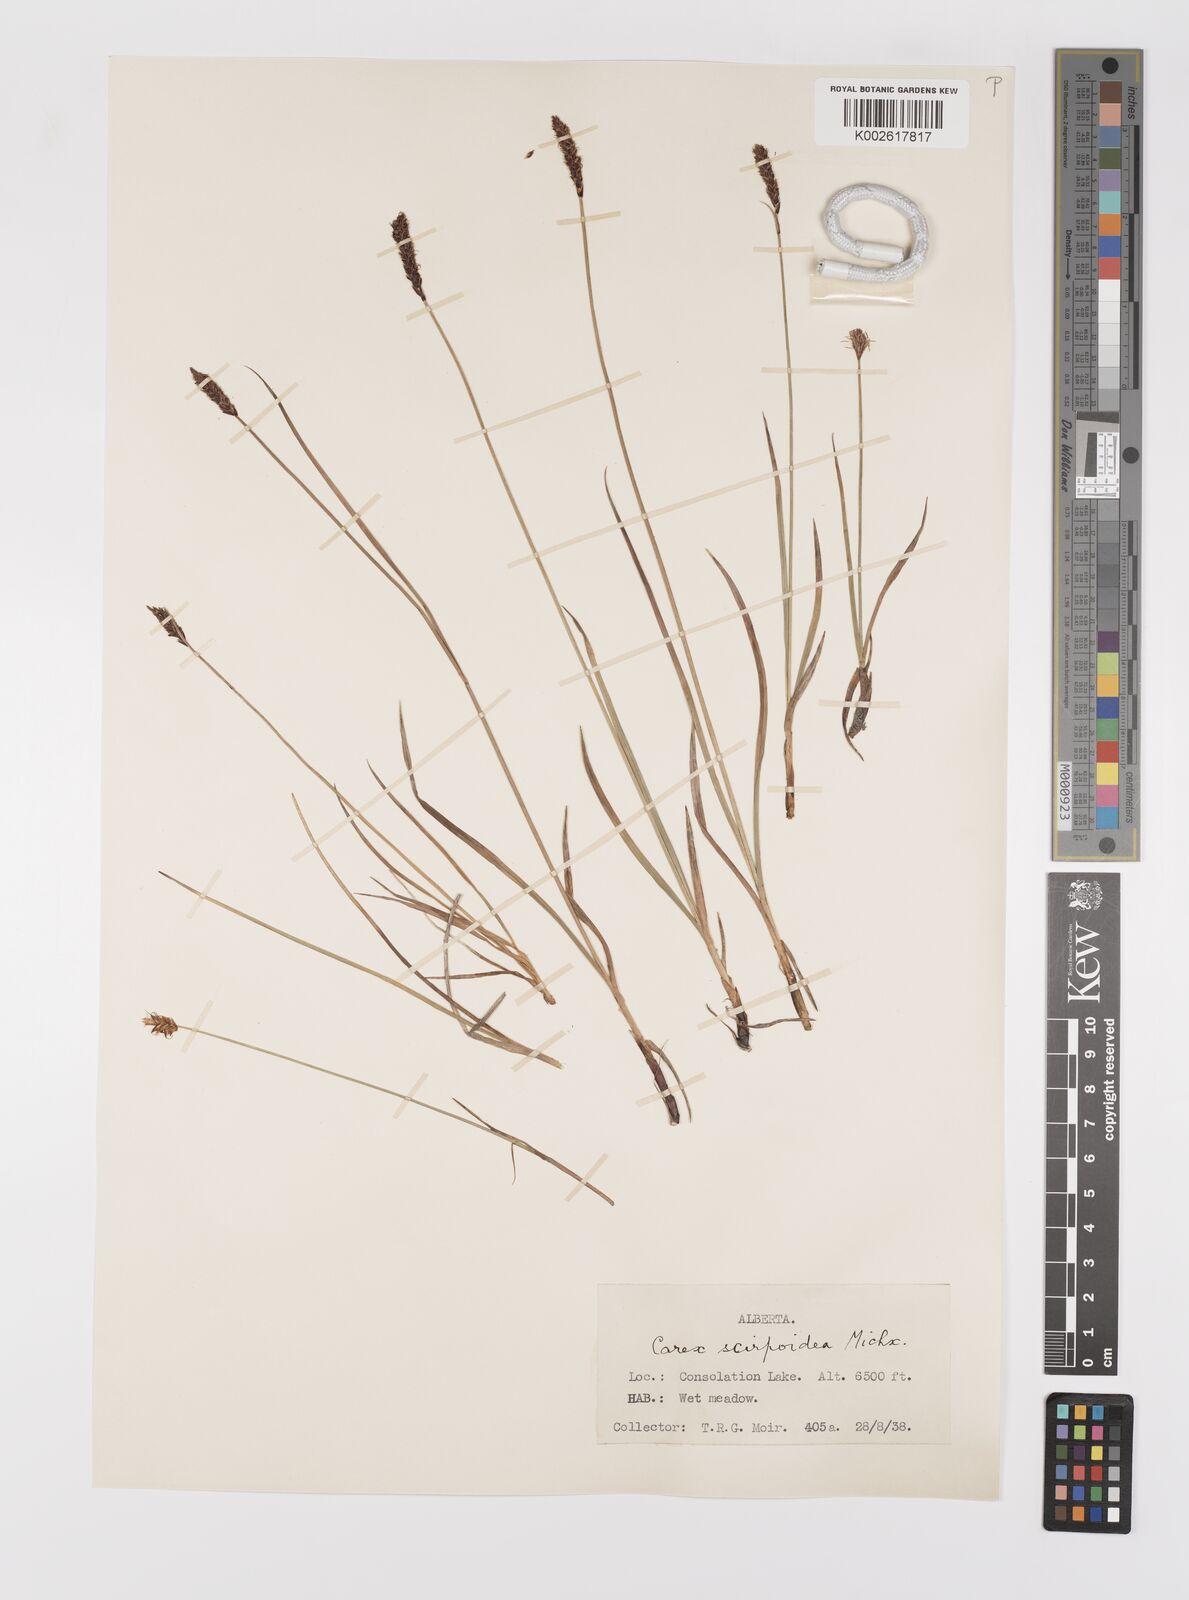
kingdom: Plantae
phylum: Tracheophyta
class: Liliopsida
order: Poales
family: Cyperaceae
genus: Carex
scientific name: Carex scirpoidea
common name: Canada single-spike sedge
